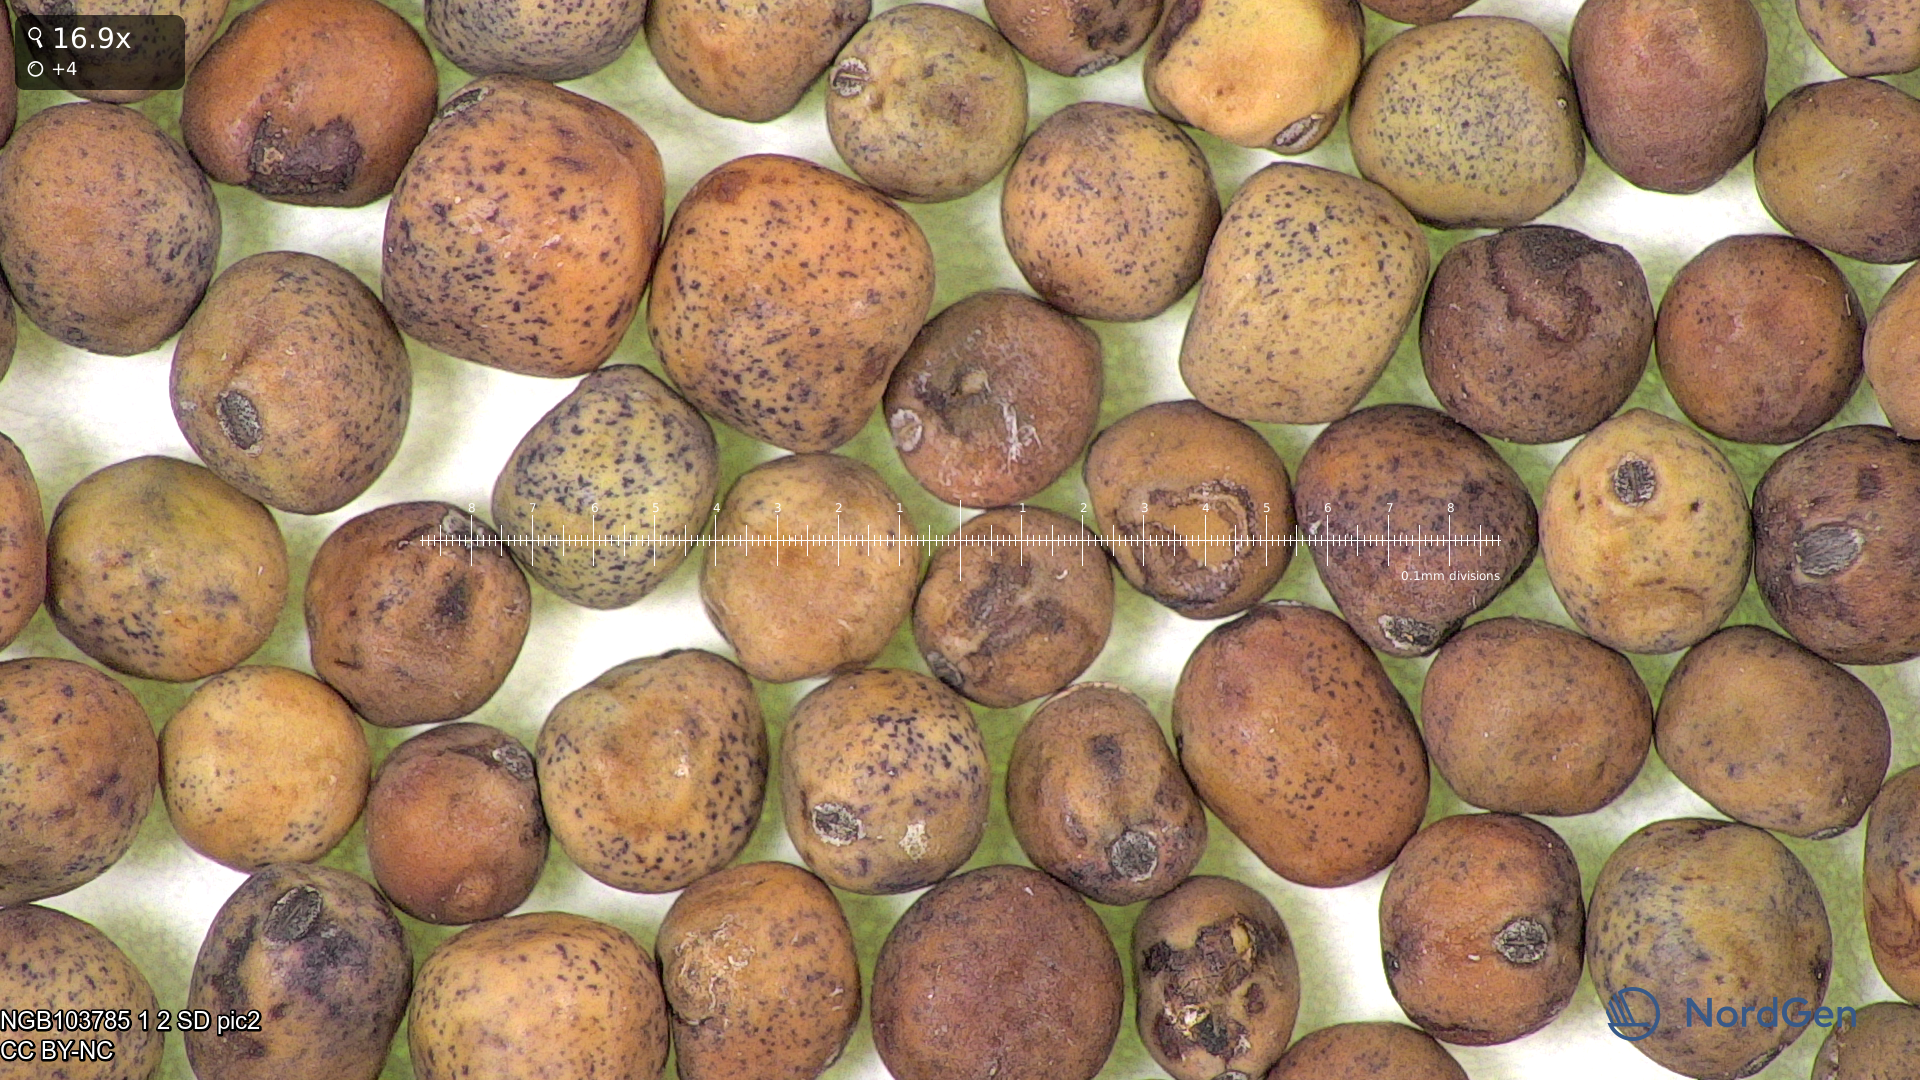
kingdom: Plantae
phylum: Tracheophyta
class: Magnoliopsida
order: Fabales
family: Fabaceae
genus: Lathyrus
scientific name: Lathyrus oleraceus
